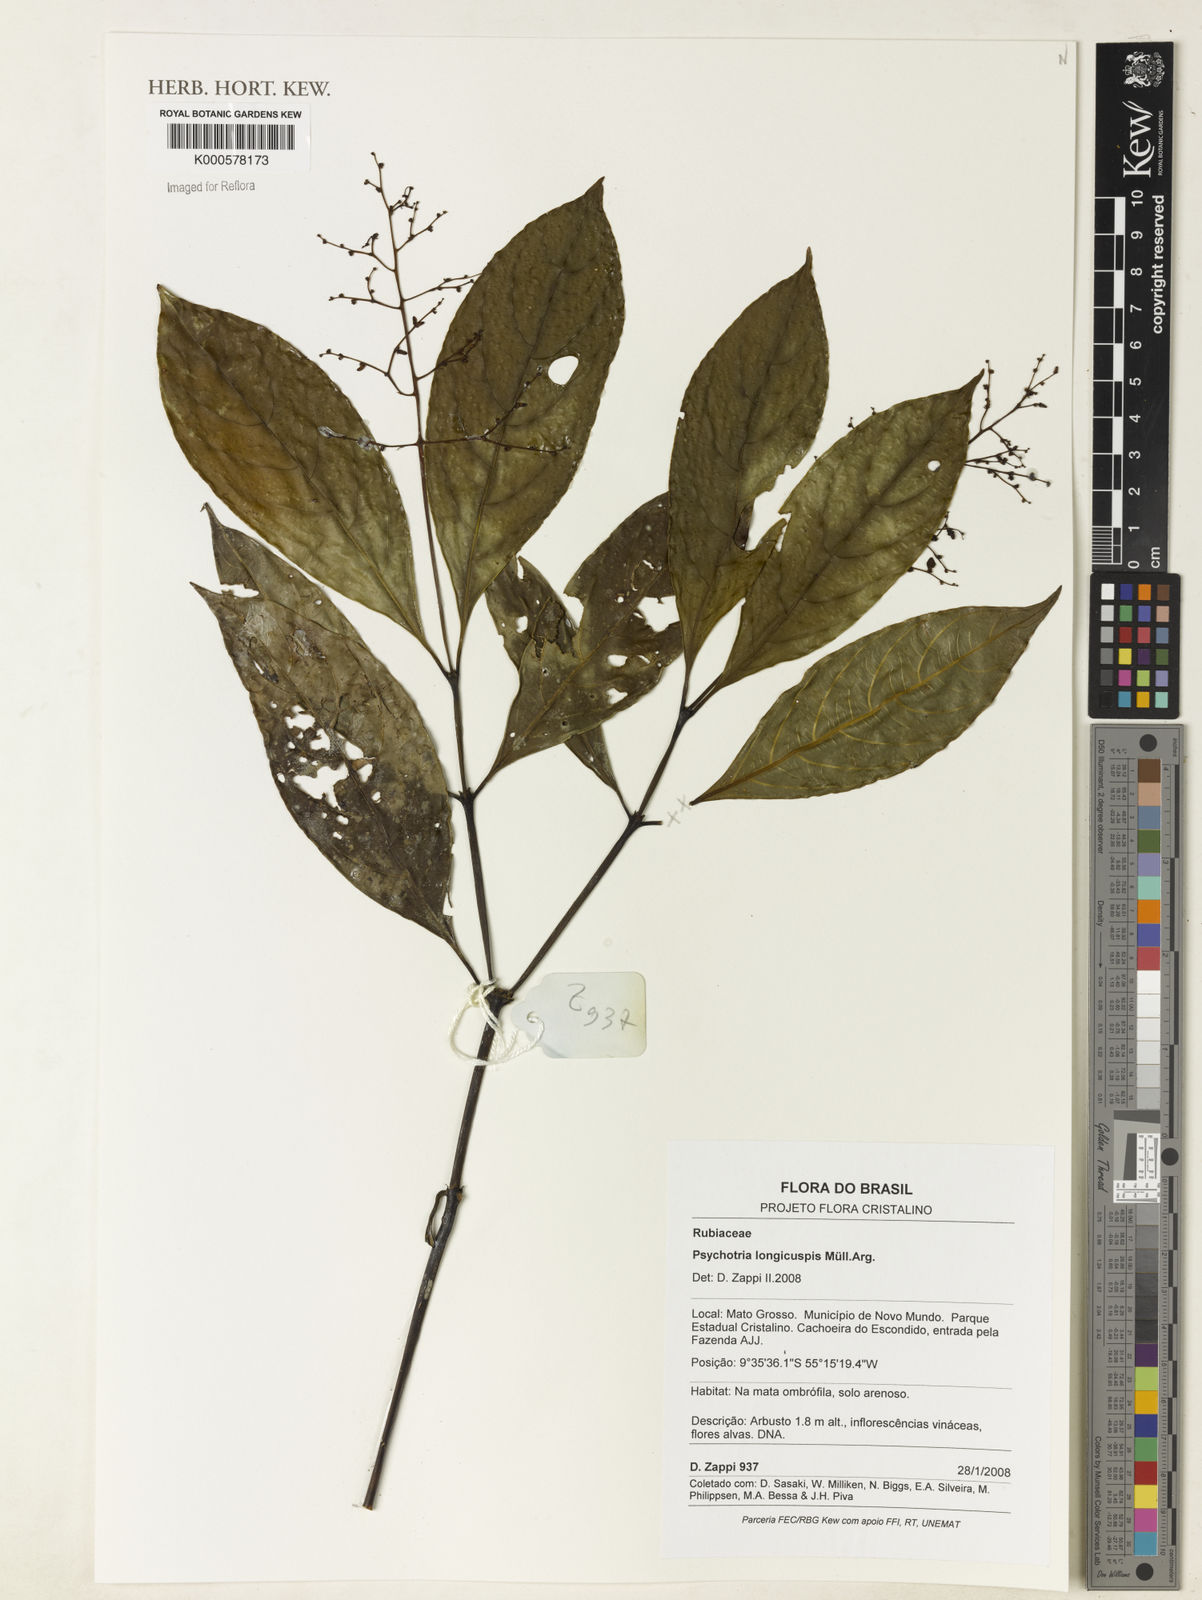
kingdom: Plantae
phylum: Tracheophyta
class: Magnoliopsida
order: Gentianales
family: Rubiaceae
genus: Psychotria
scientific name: Psychotria
